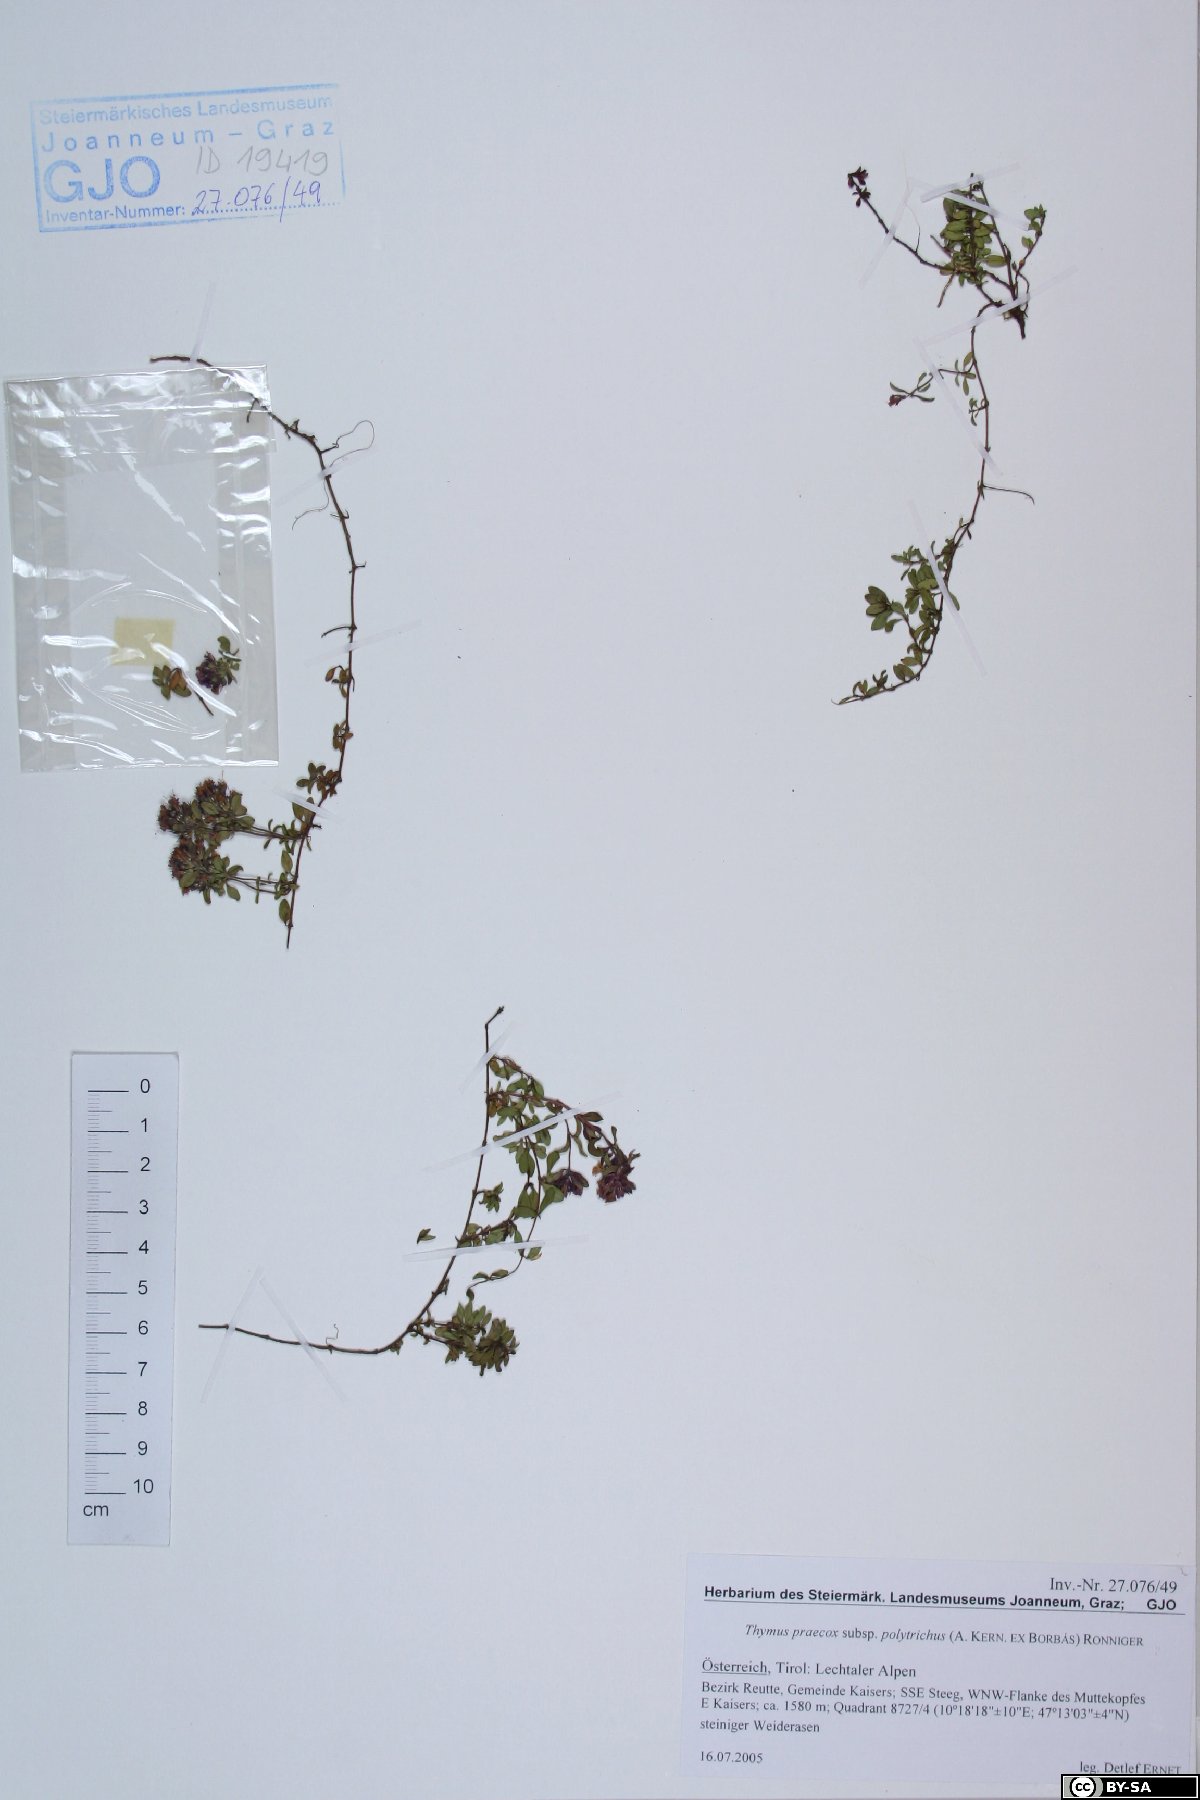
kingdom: Plantae
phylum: Tracheophyta
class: Magnoliopsida
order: Lamiales
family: Lamiaceae
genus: Thymus
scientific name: Thymus praecox
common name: Wild thyme
